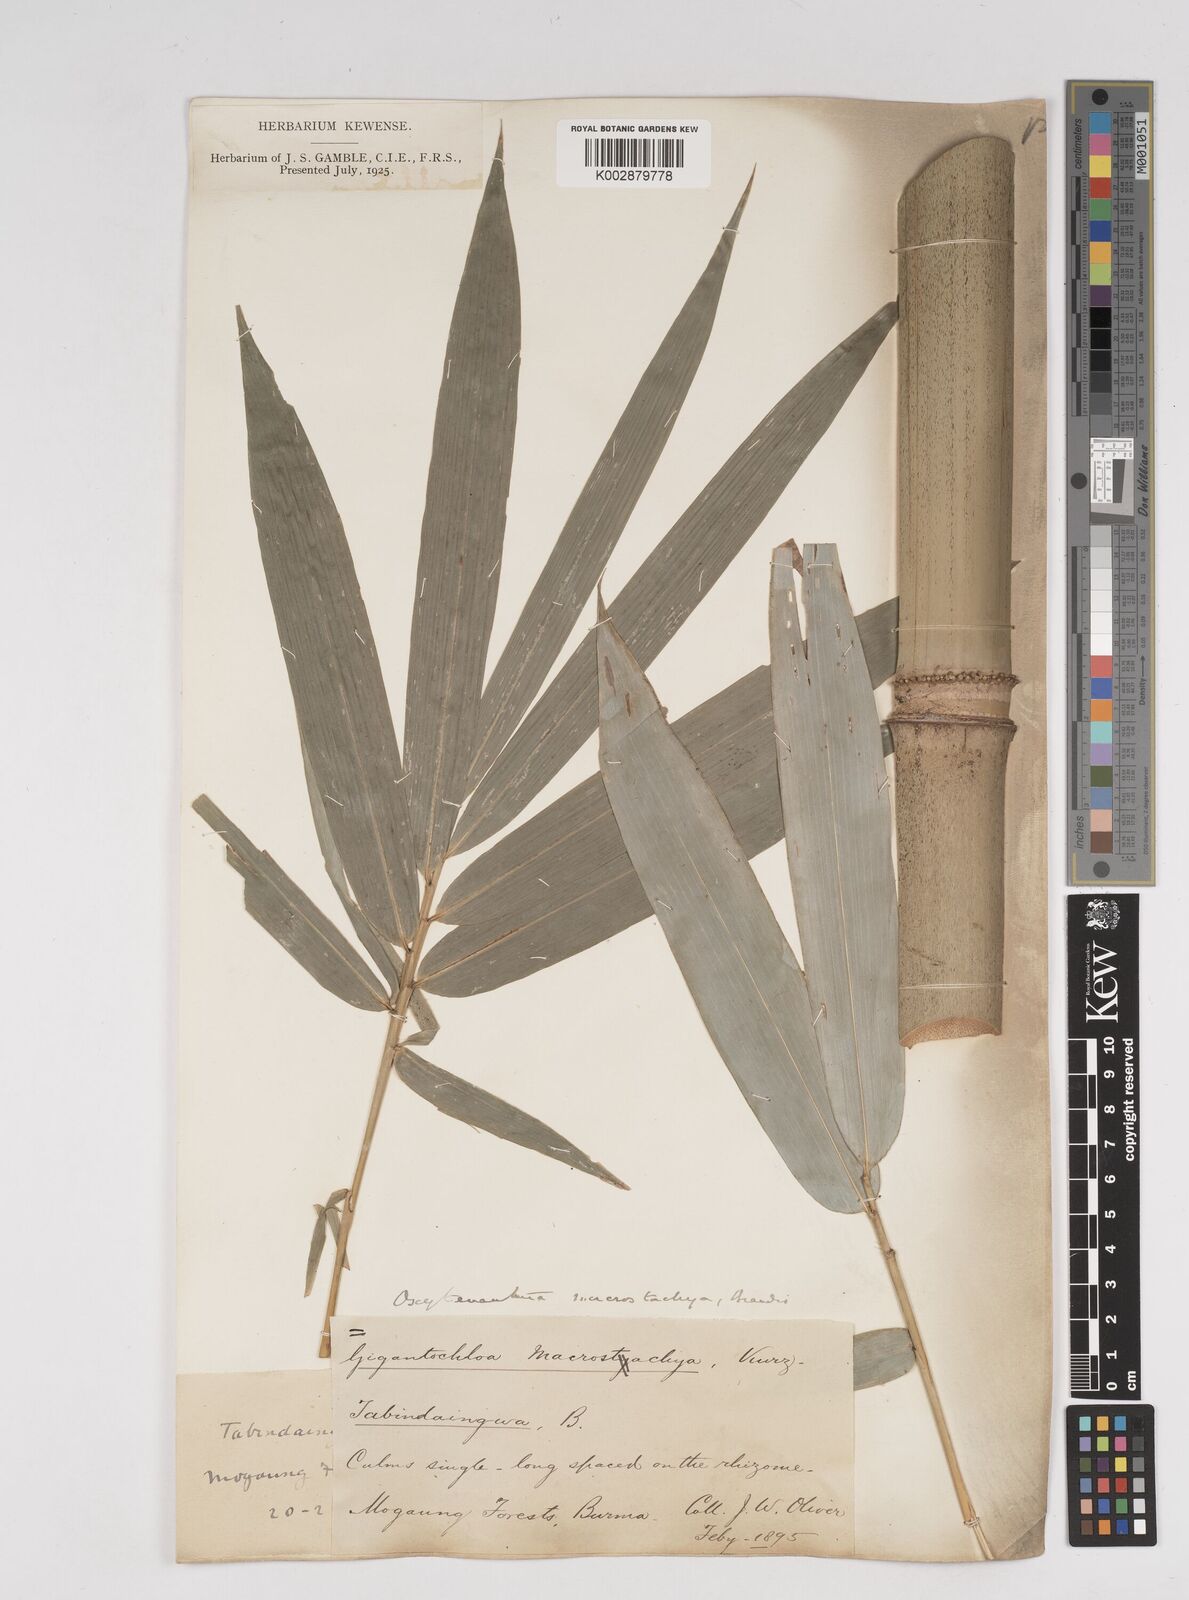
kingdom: Plantae
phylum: Tracheophyta
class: Liliopsida
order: Poales
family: Poaceae
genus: Gigantochloa
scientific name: Gigantochloa macrostachya
